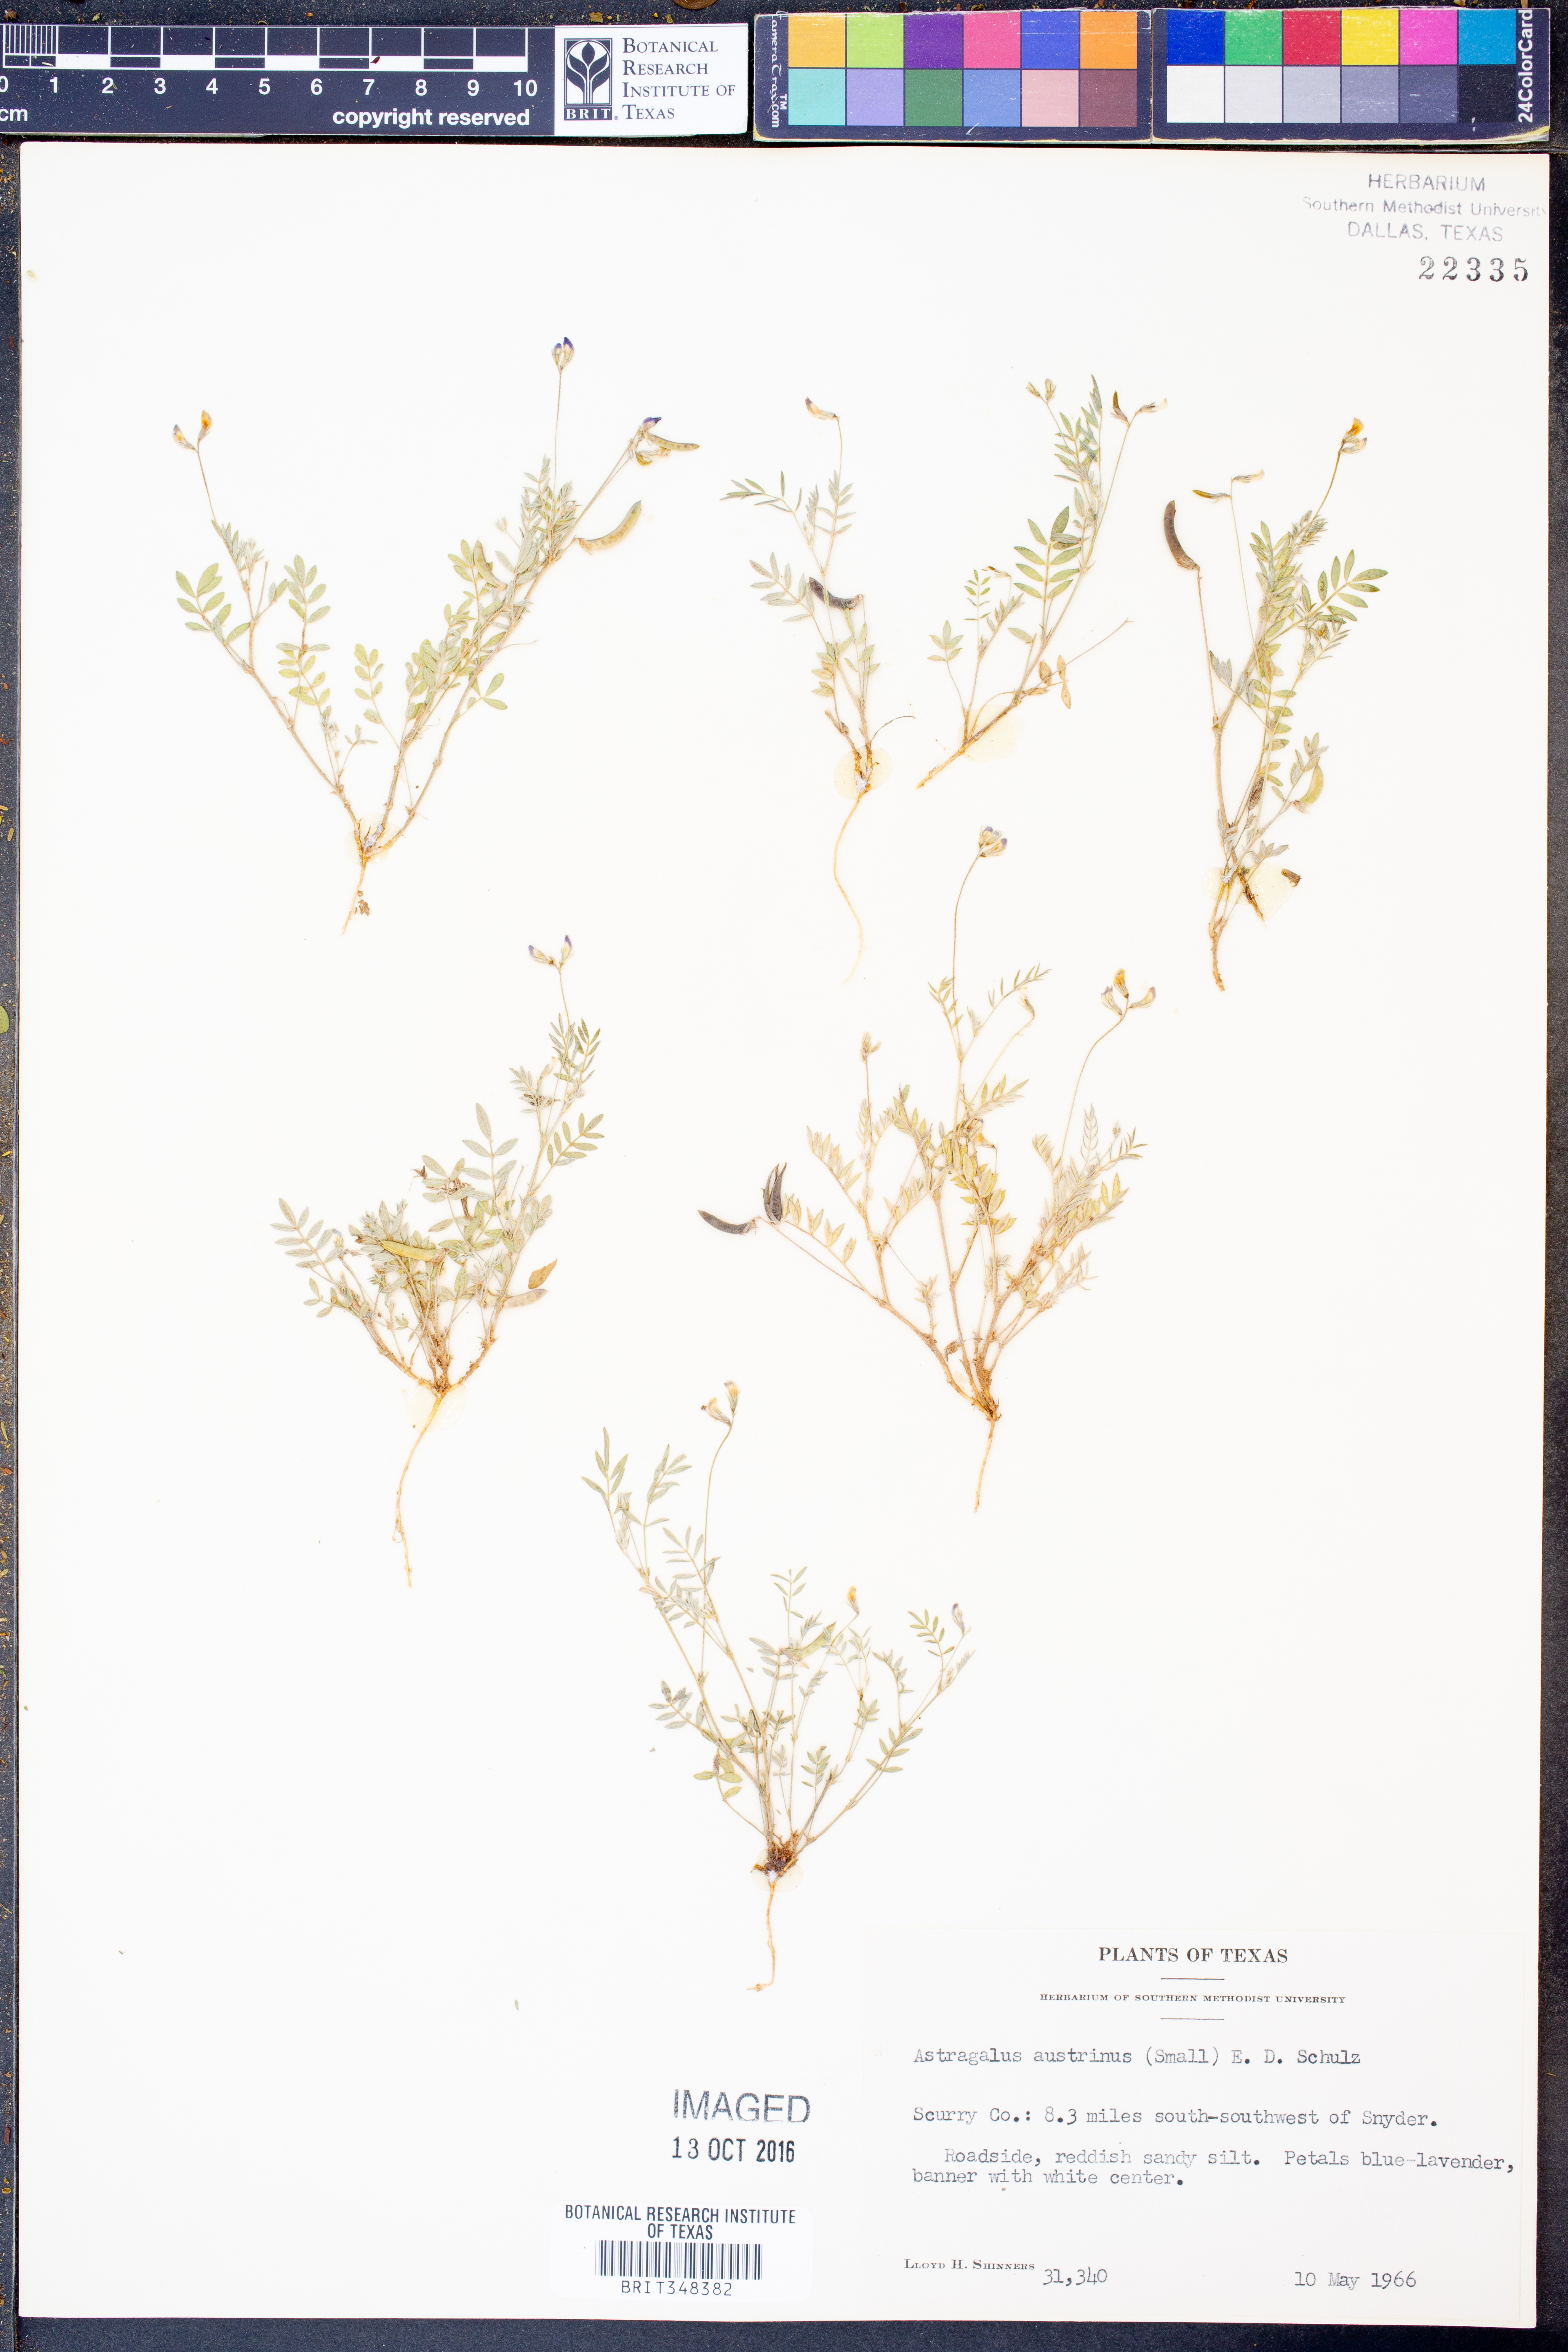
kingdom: Plantae
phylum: Tracheophyta
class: Magnoliopsida
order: Fabales
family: Fabaceae
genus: Astragalus
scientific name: Astragalus nuttallianus
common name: Smallflowered milkvetch
